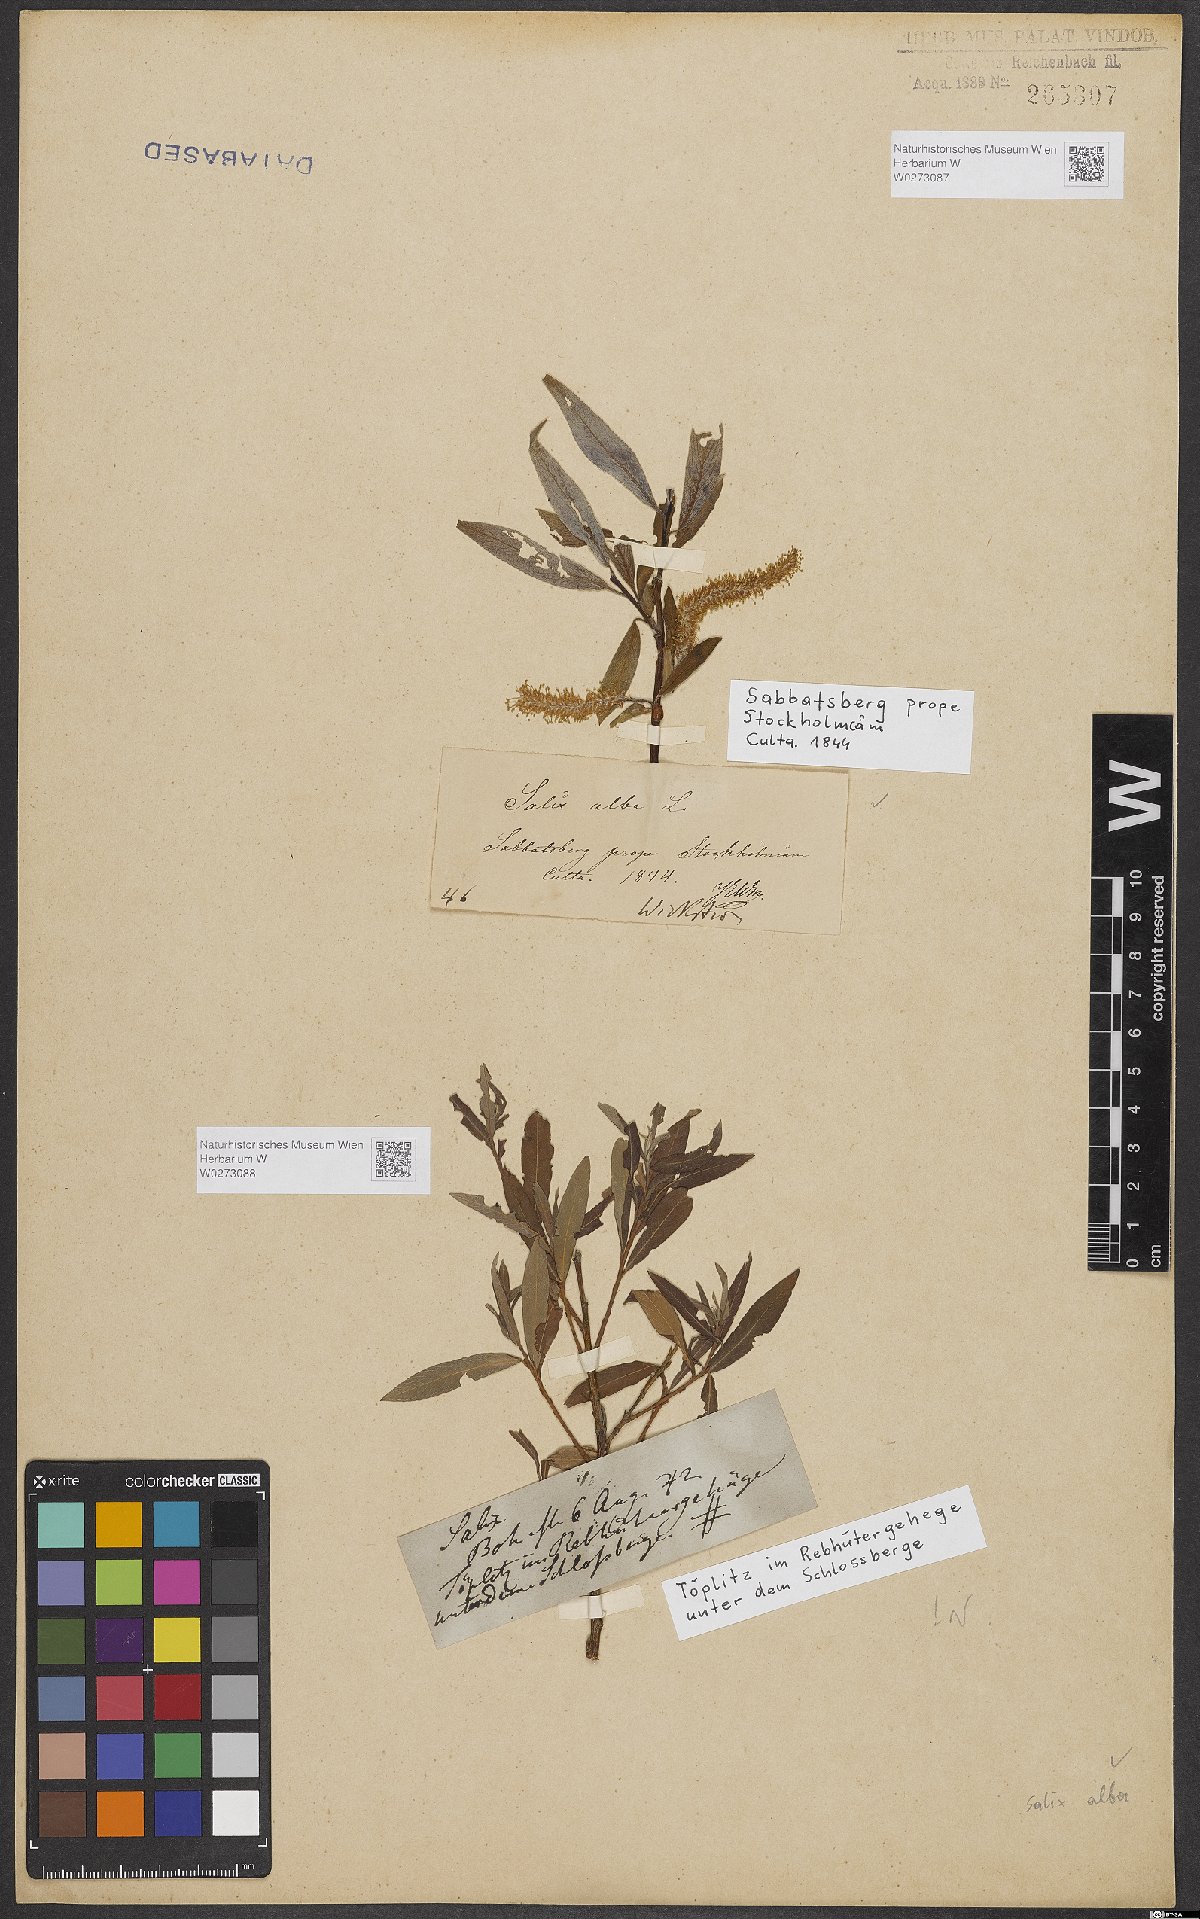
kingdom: Plantae
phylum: Tracheophyta
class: Magnoliopsida
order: Malpighiales
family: Salicaceae
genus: Salix
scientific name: Salix alba
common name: White willow
